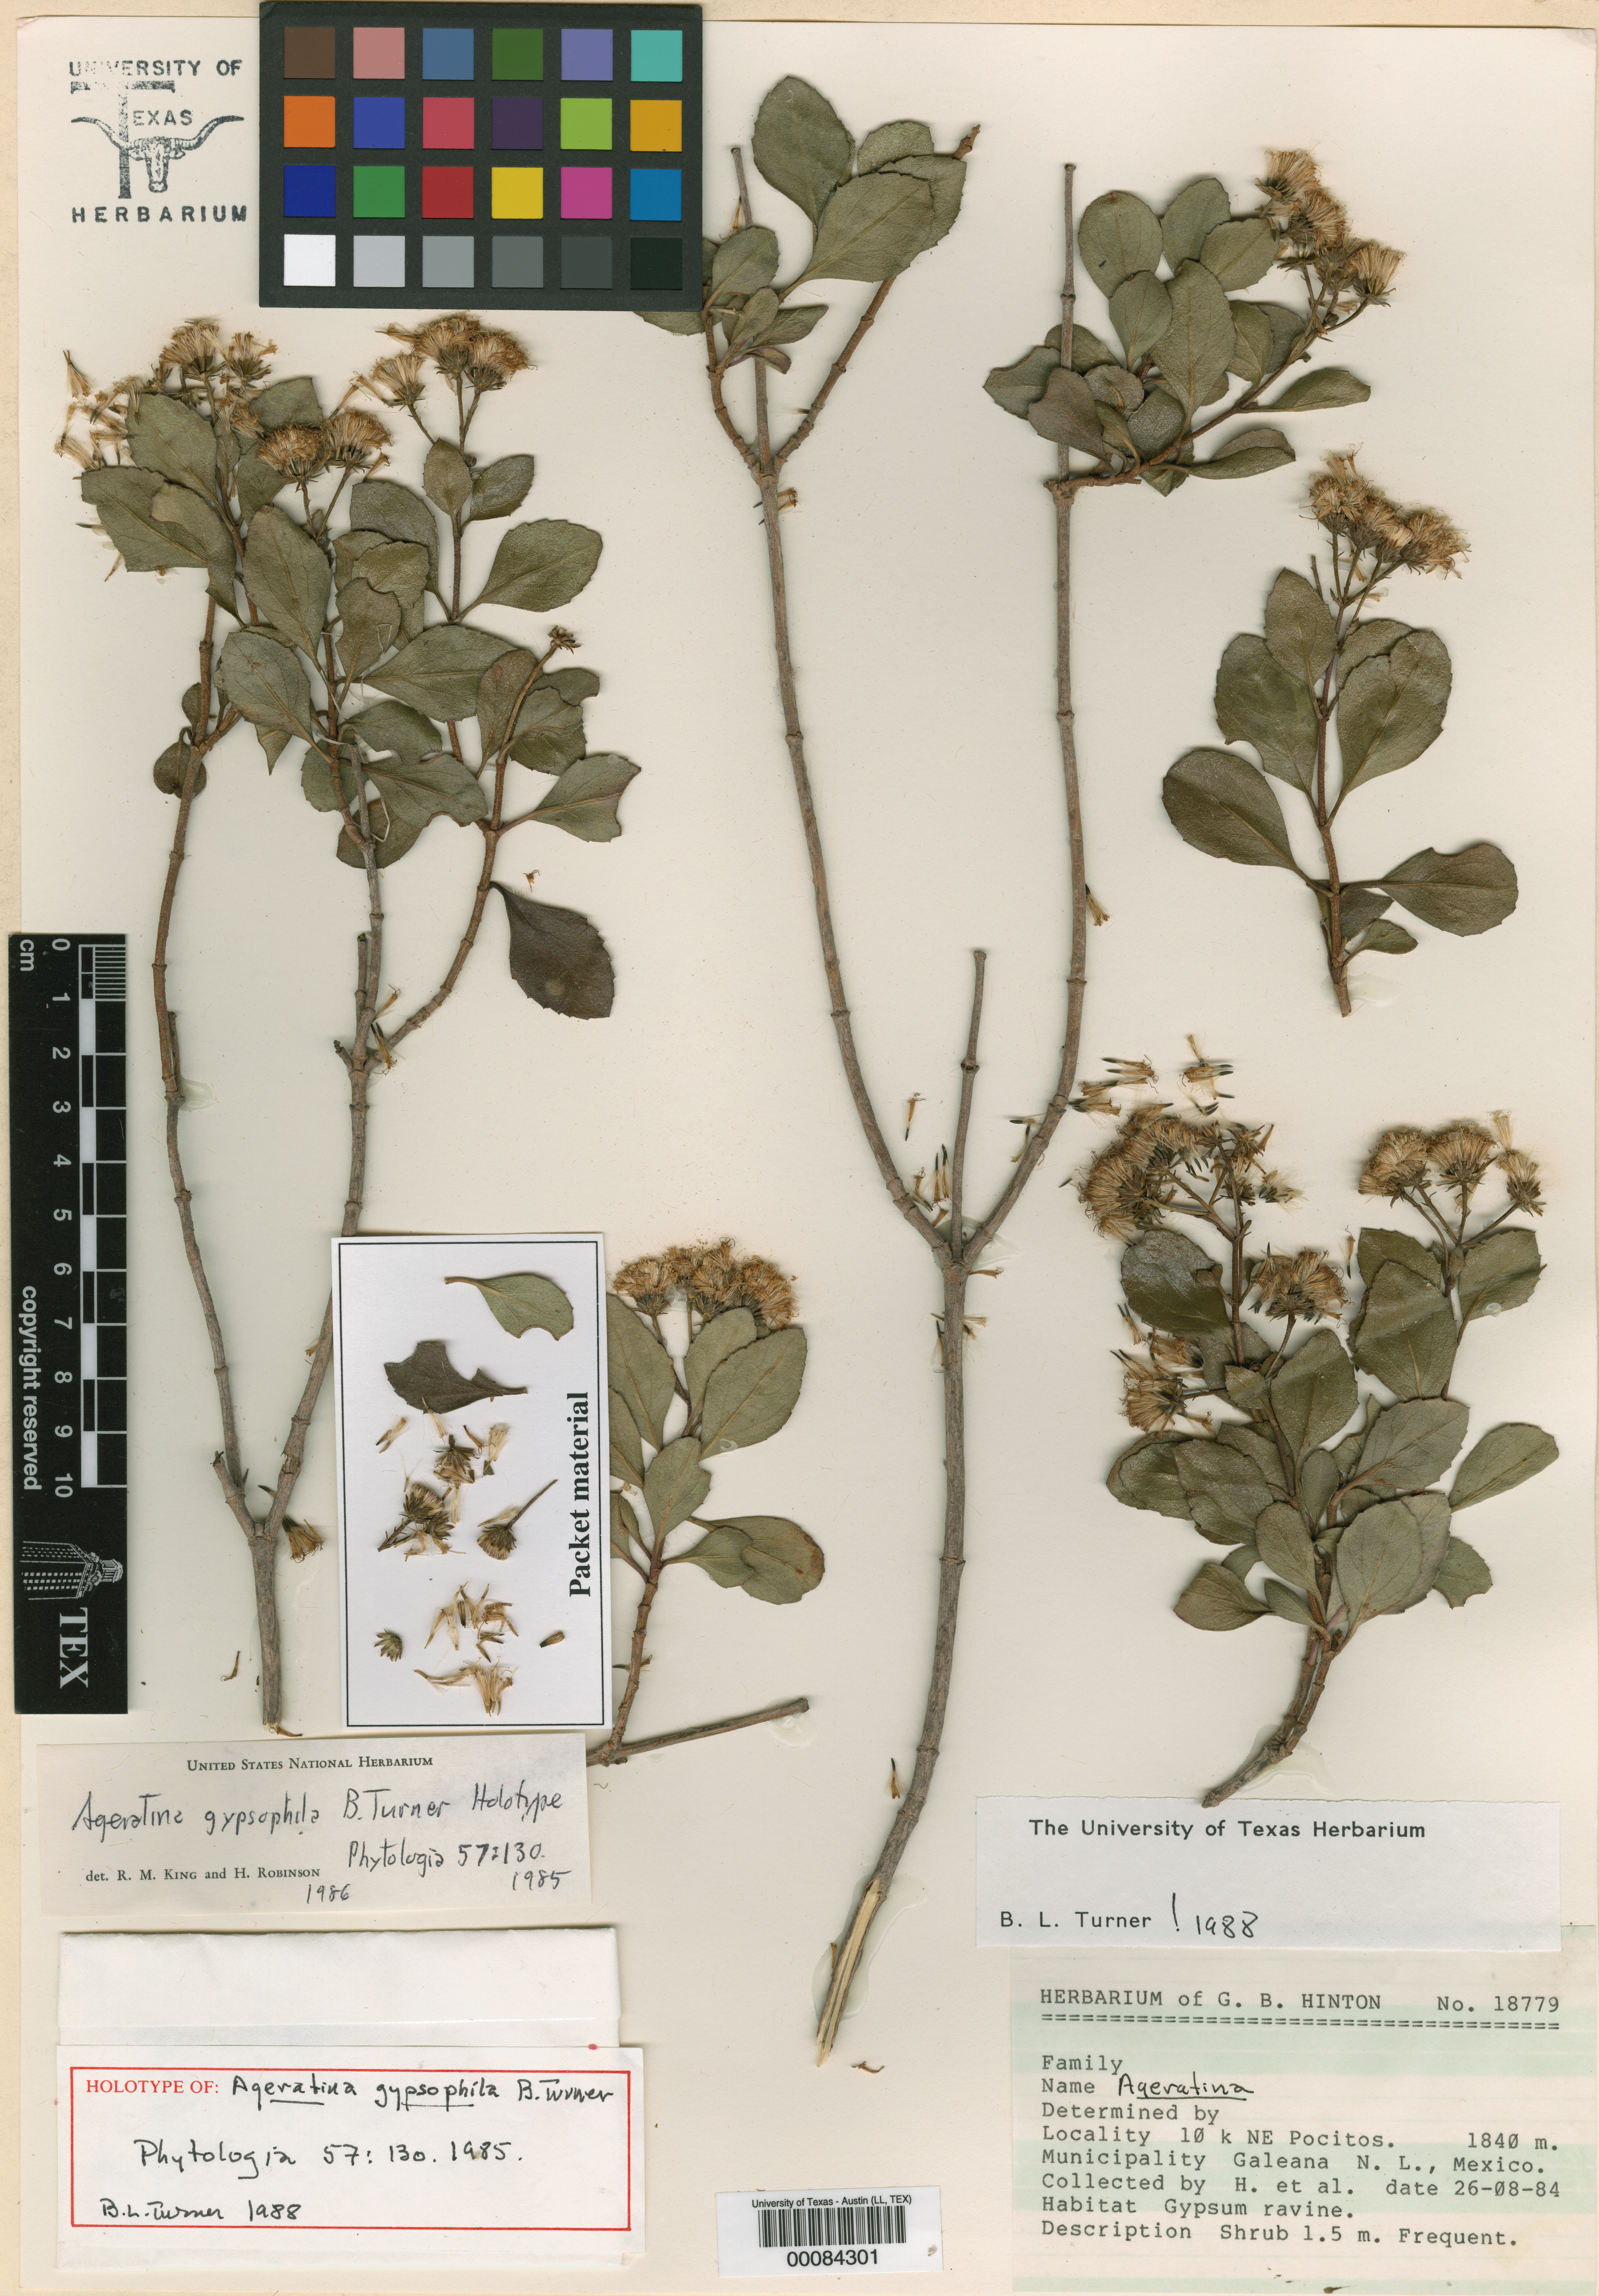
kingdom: Plantae
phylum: Tracheophyta
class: Magnoliopsida
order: Asterales
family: Asteraceae
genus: Ageratina
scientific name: Ageratina gypsophila
